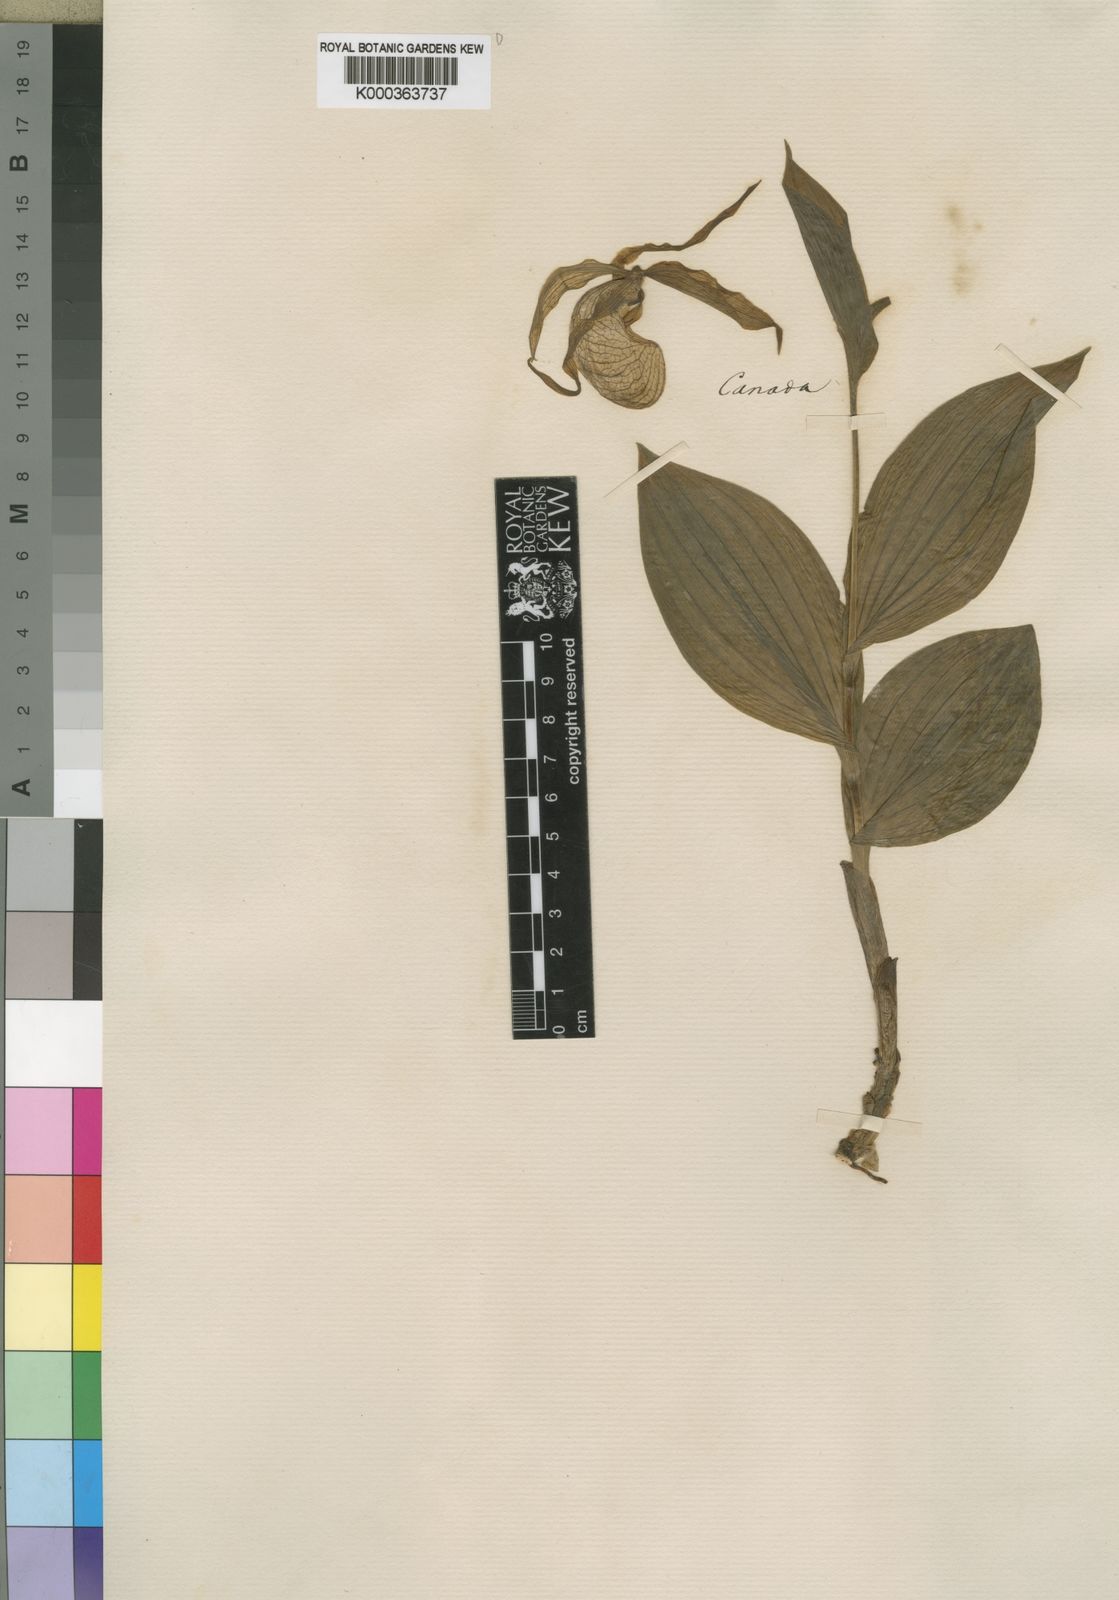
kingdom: Plantae
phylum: Tracheophyta
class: Liliopsida
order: Asparagales
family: Orchidaceae
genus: Cypripedium
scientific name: Cypripedium
